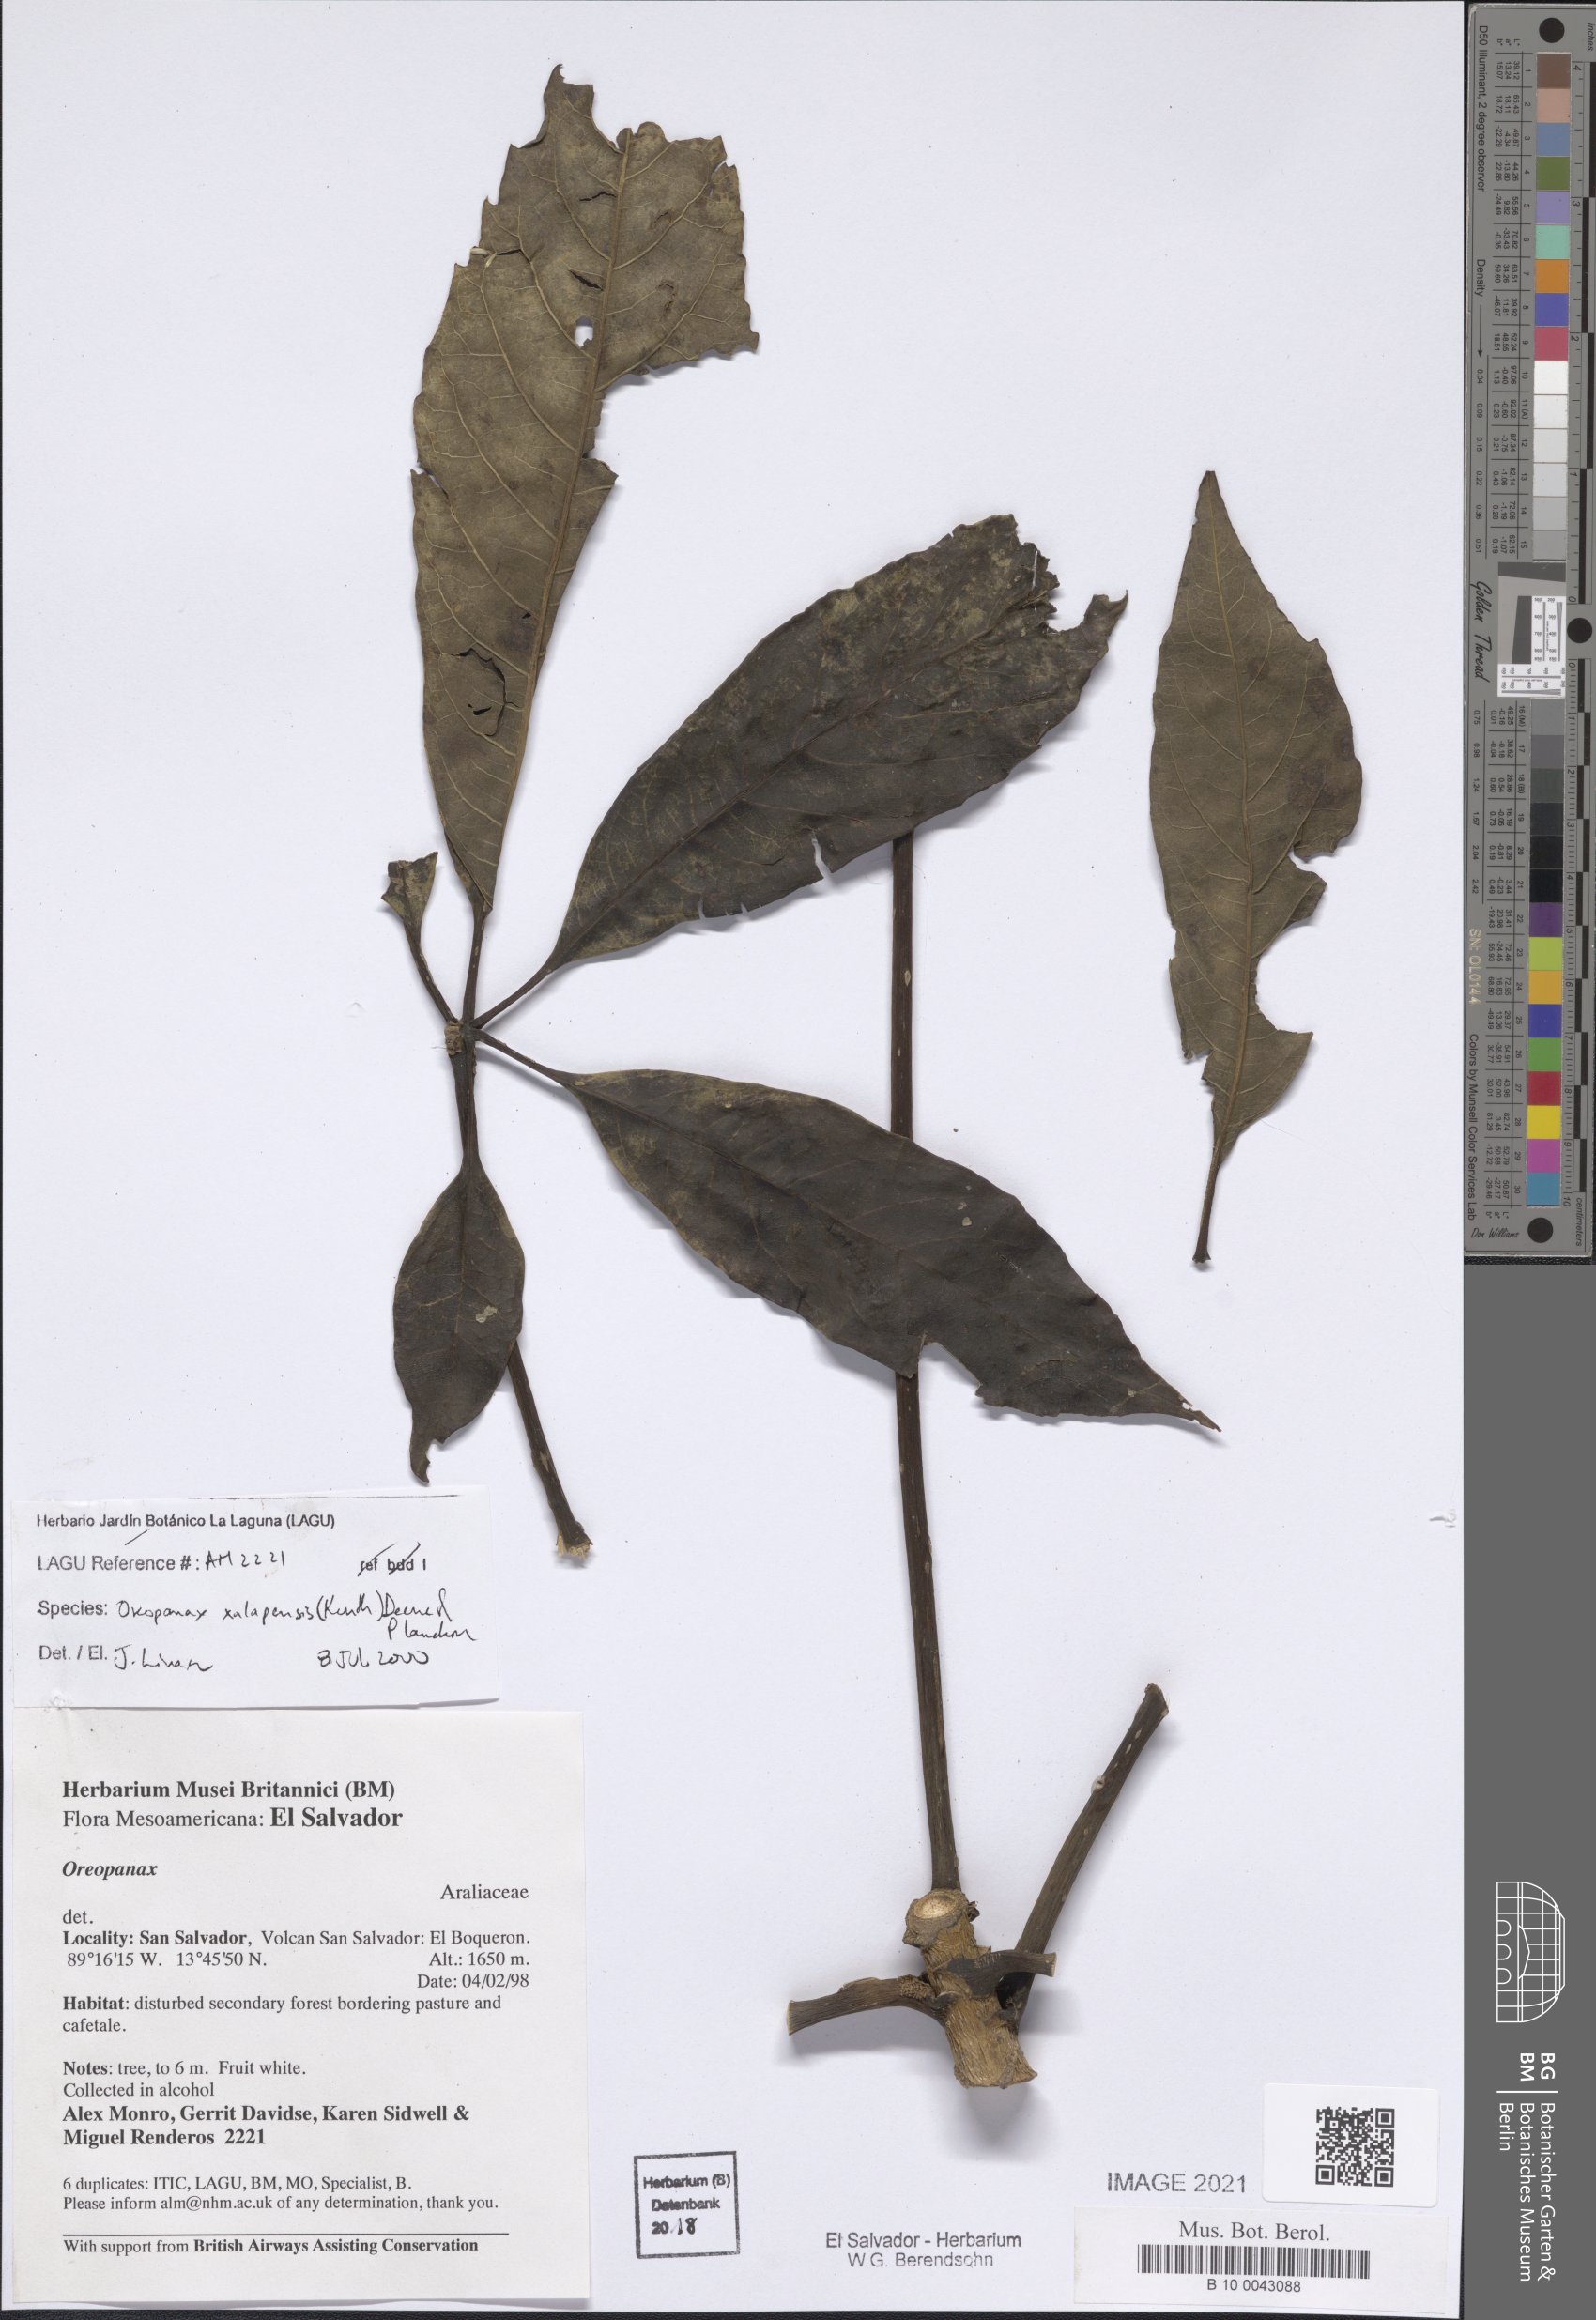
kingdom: Plantae
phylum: Tracheophyta
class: Magnoliopsida
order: Apiales
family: Araliaceae
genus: Oreopanax
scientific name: Oreopanax xalapensis
